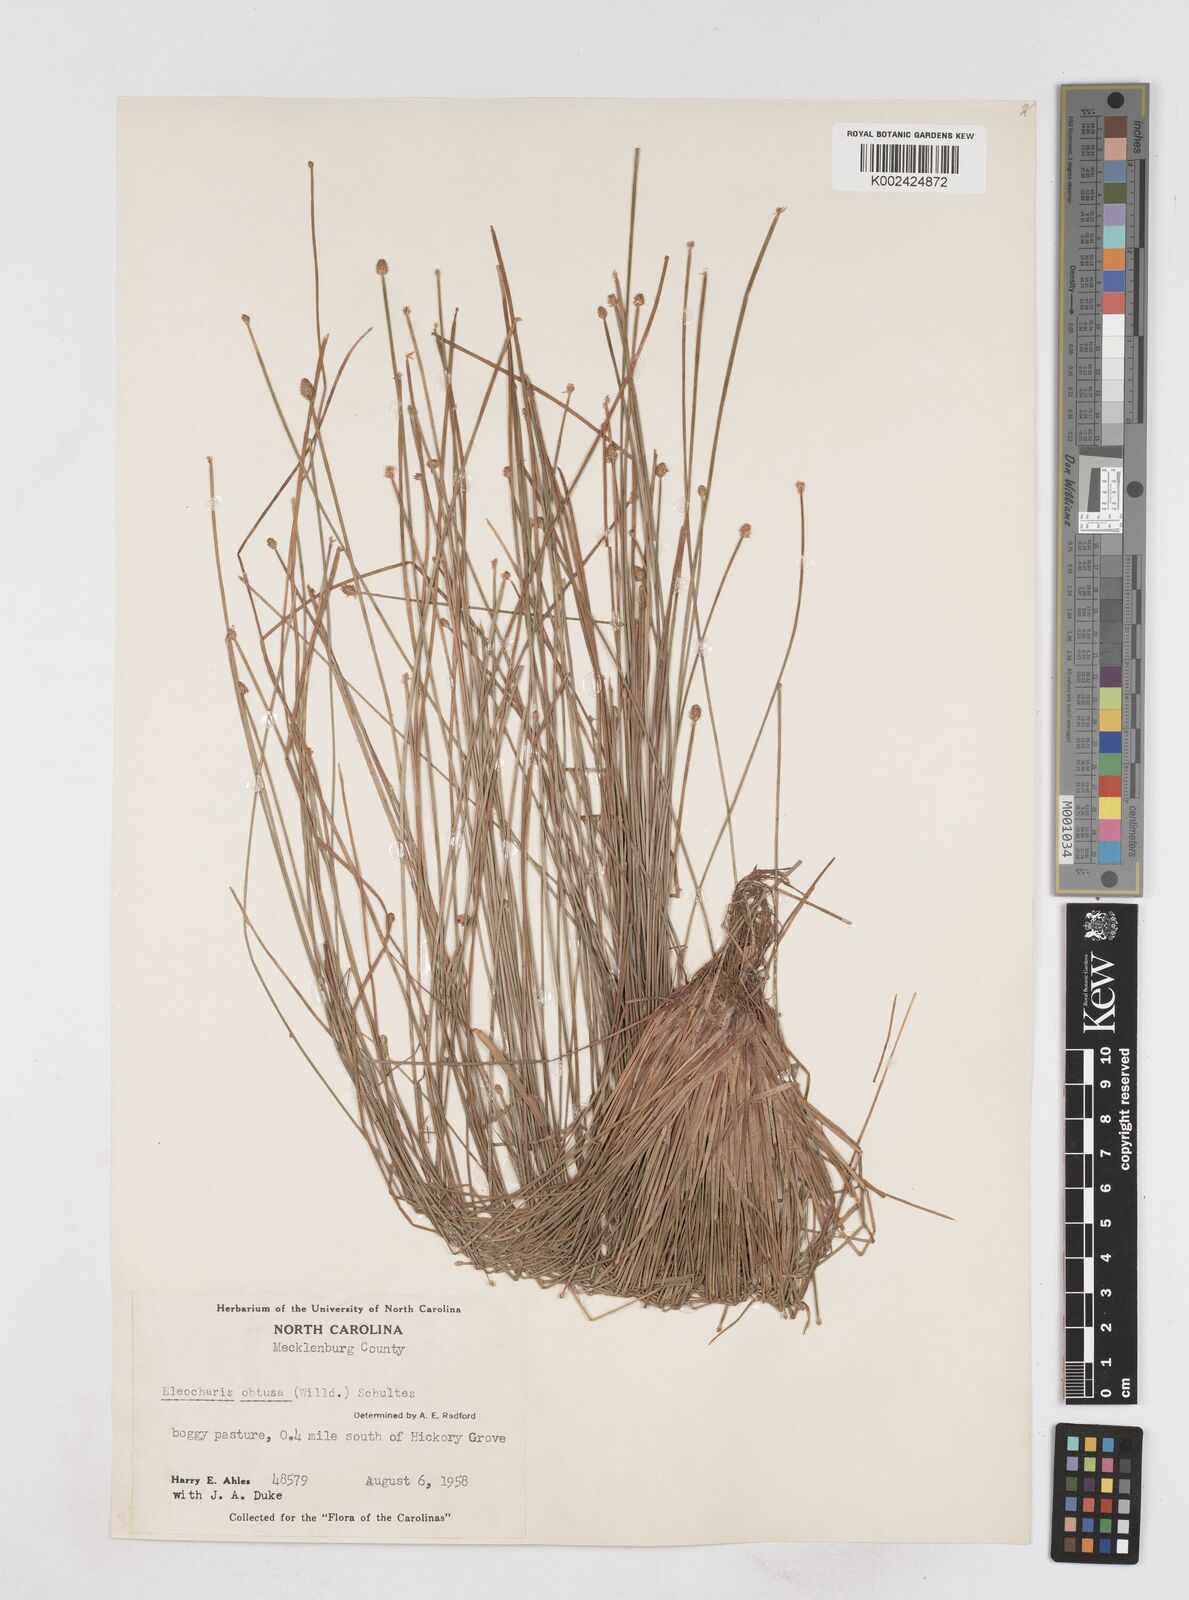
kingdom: Plantae
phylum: Tracheophyta
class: Liliopsida
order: Poales
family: Cyperaceae
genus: Eleocharis
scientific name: Eleocharis obtusa
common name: Blunt spikerush
